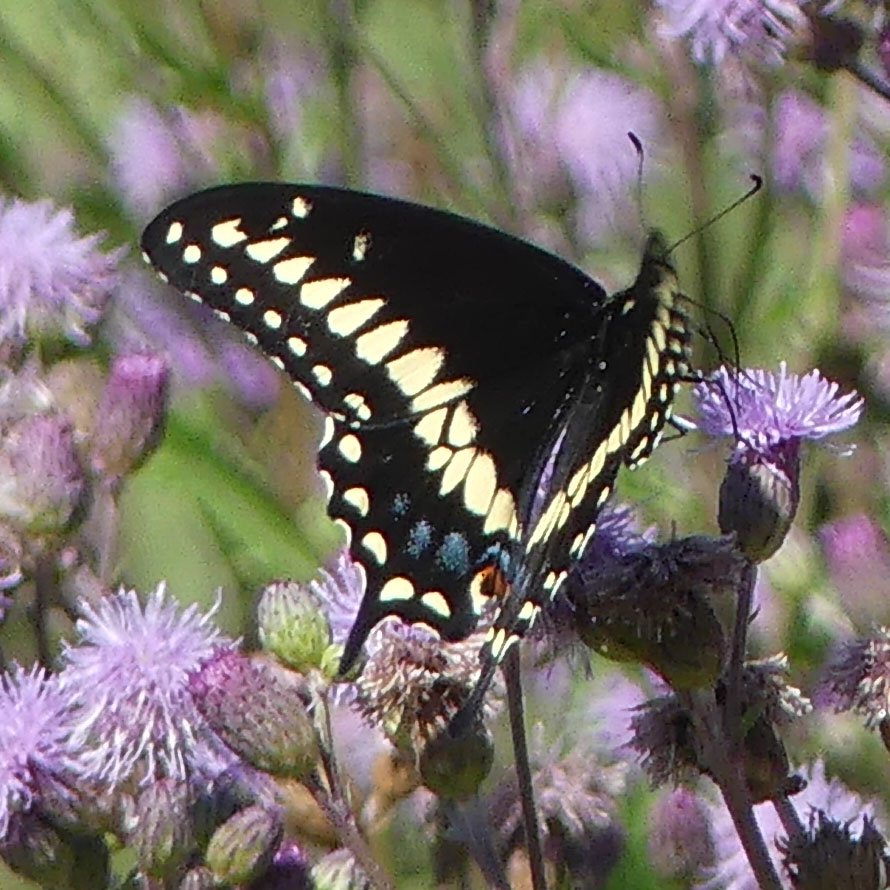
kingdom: Animalia
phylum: Arthropoda
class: Insecta
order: Lepidoptera
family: Papilionidae
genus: Papilio
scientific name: Papilio polyxenes
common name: Black Swallowtail
